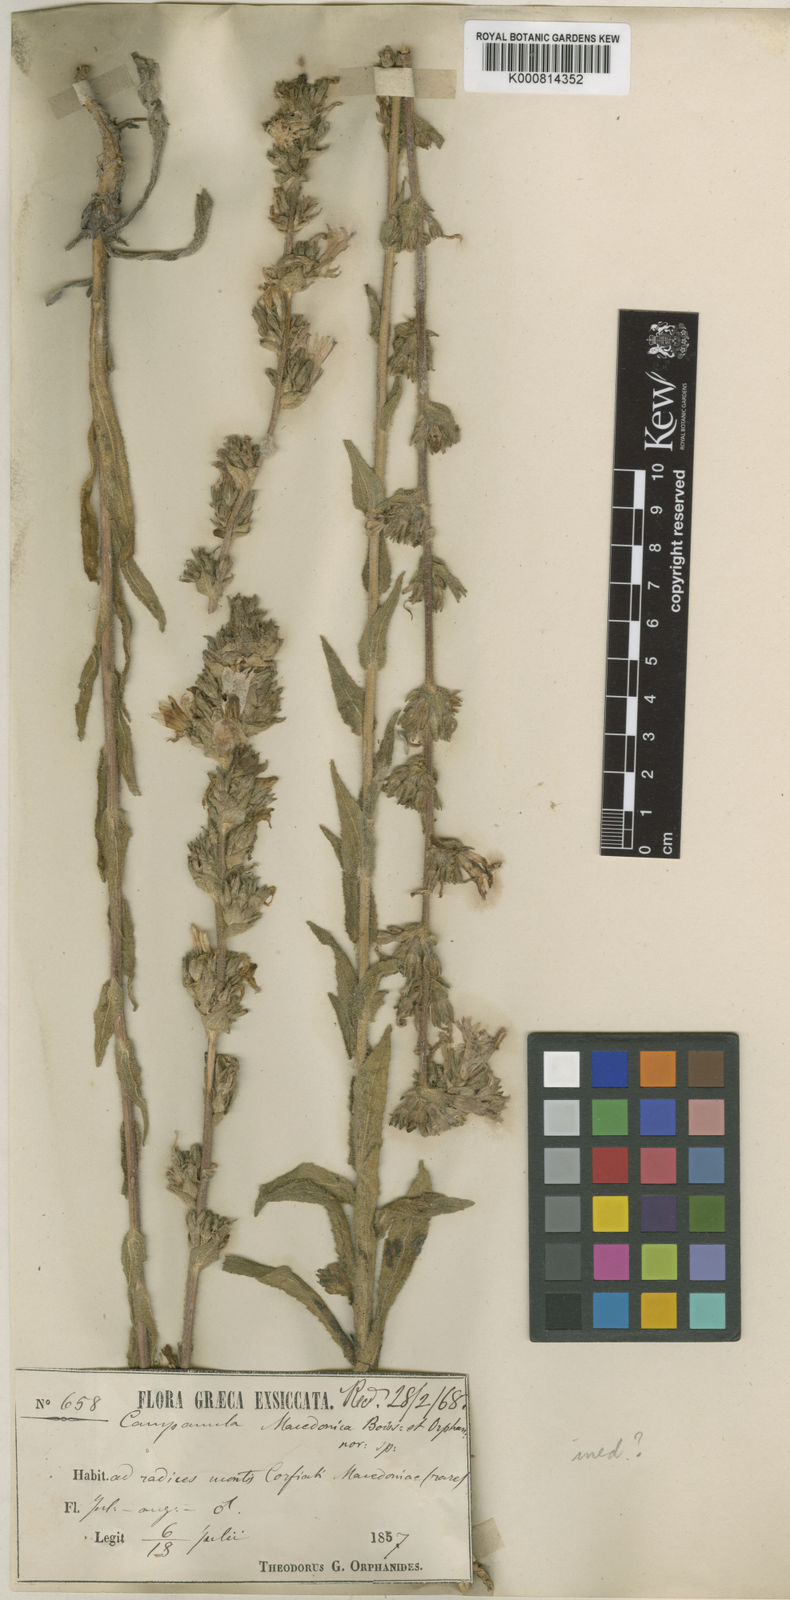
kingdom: Plantae
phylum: Tracheophyta
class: Magnoliopsida
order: Asterales
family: Campanulaceae
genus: Campanula
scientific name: Campanula rapunculoides
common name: Creeping bellflower
